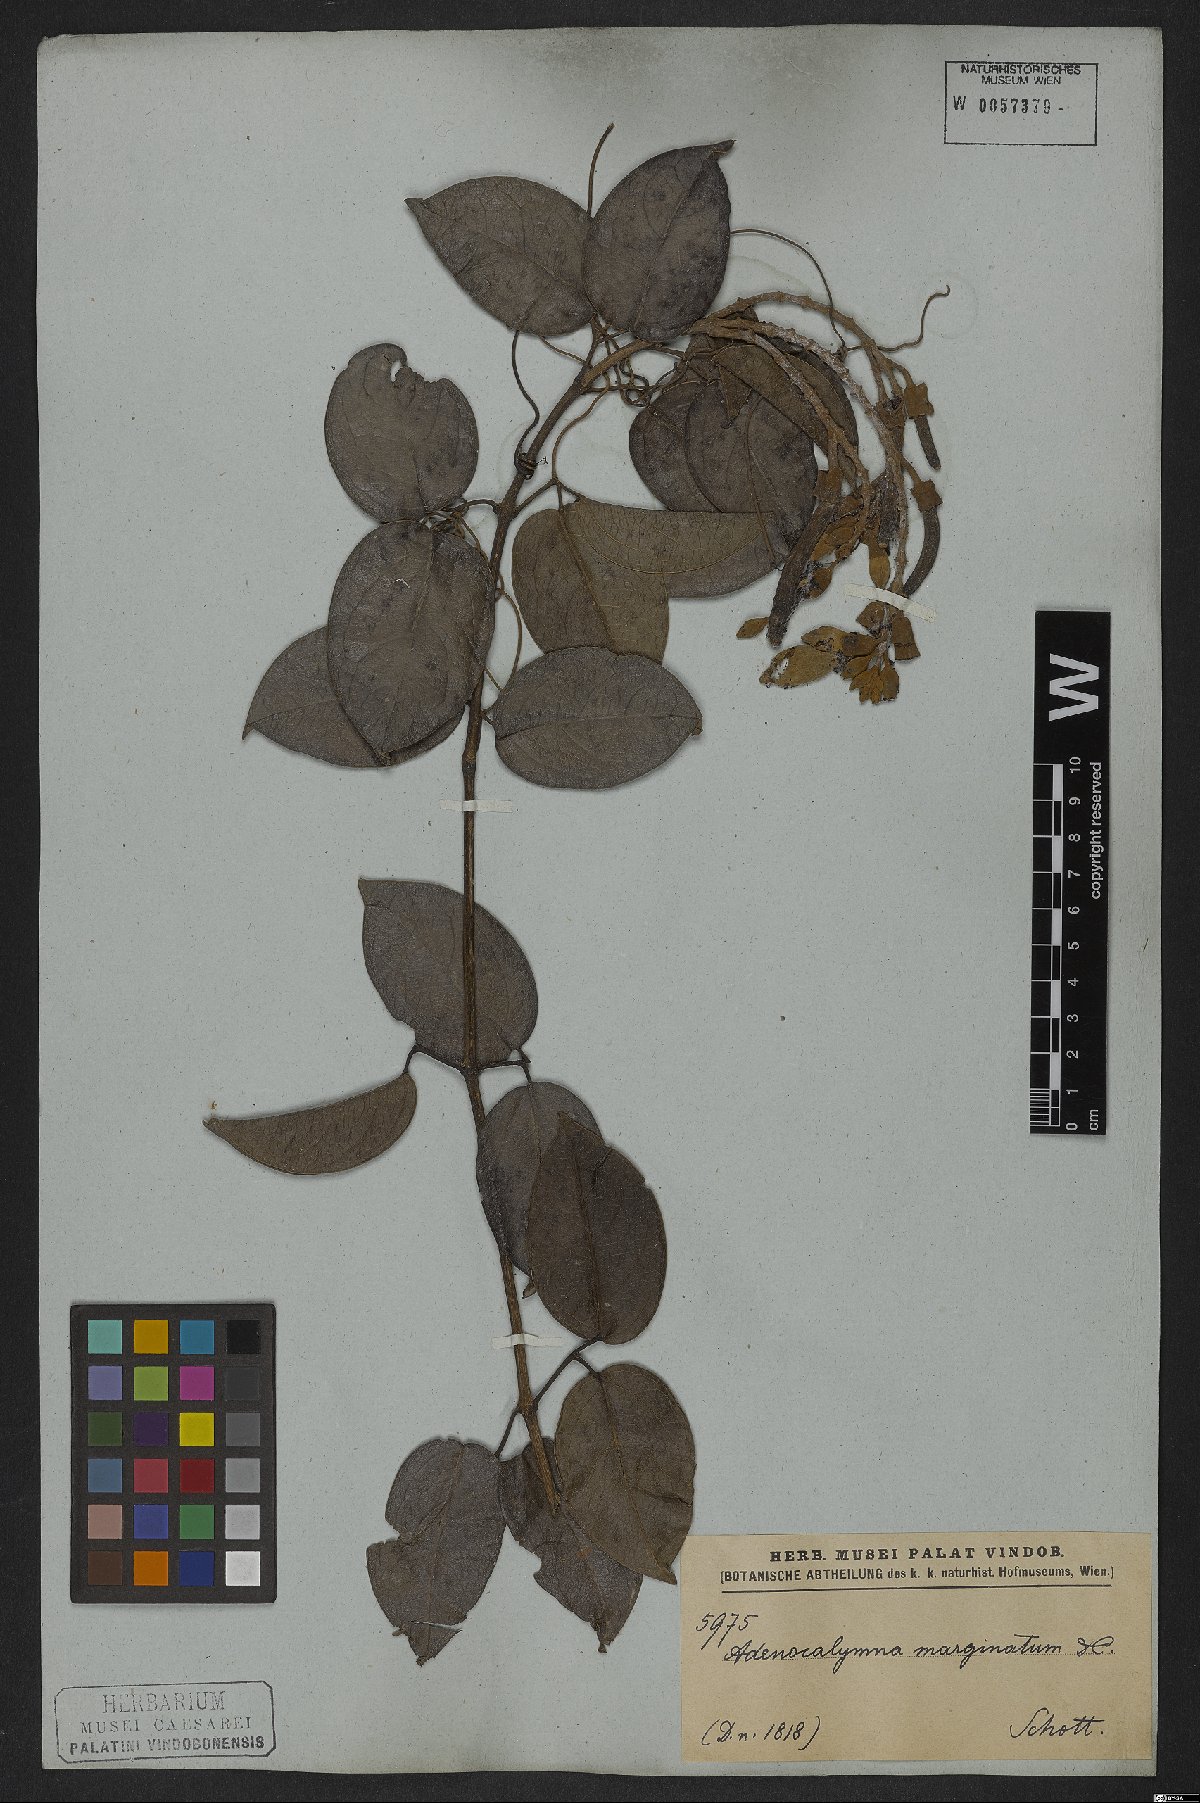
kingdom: Plantae
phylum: Tracheophyta
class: Magnoliopsida
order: Lamiales
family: Bignoniaceae
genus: Adenocalymma
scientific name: Adenocalymma marginatum
